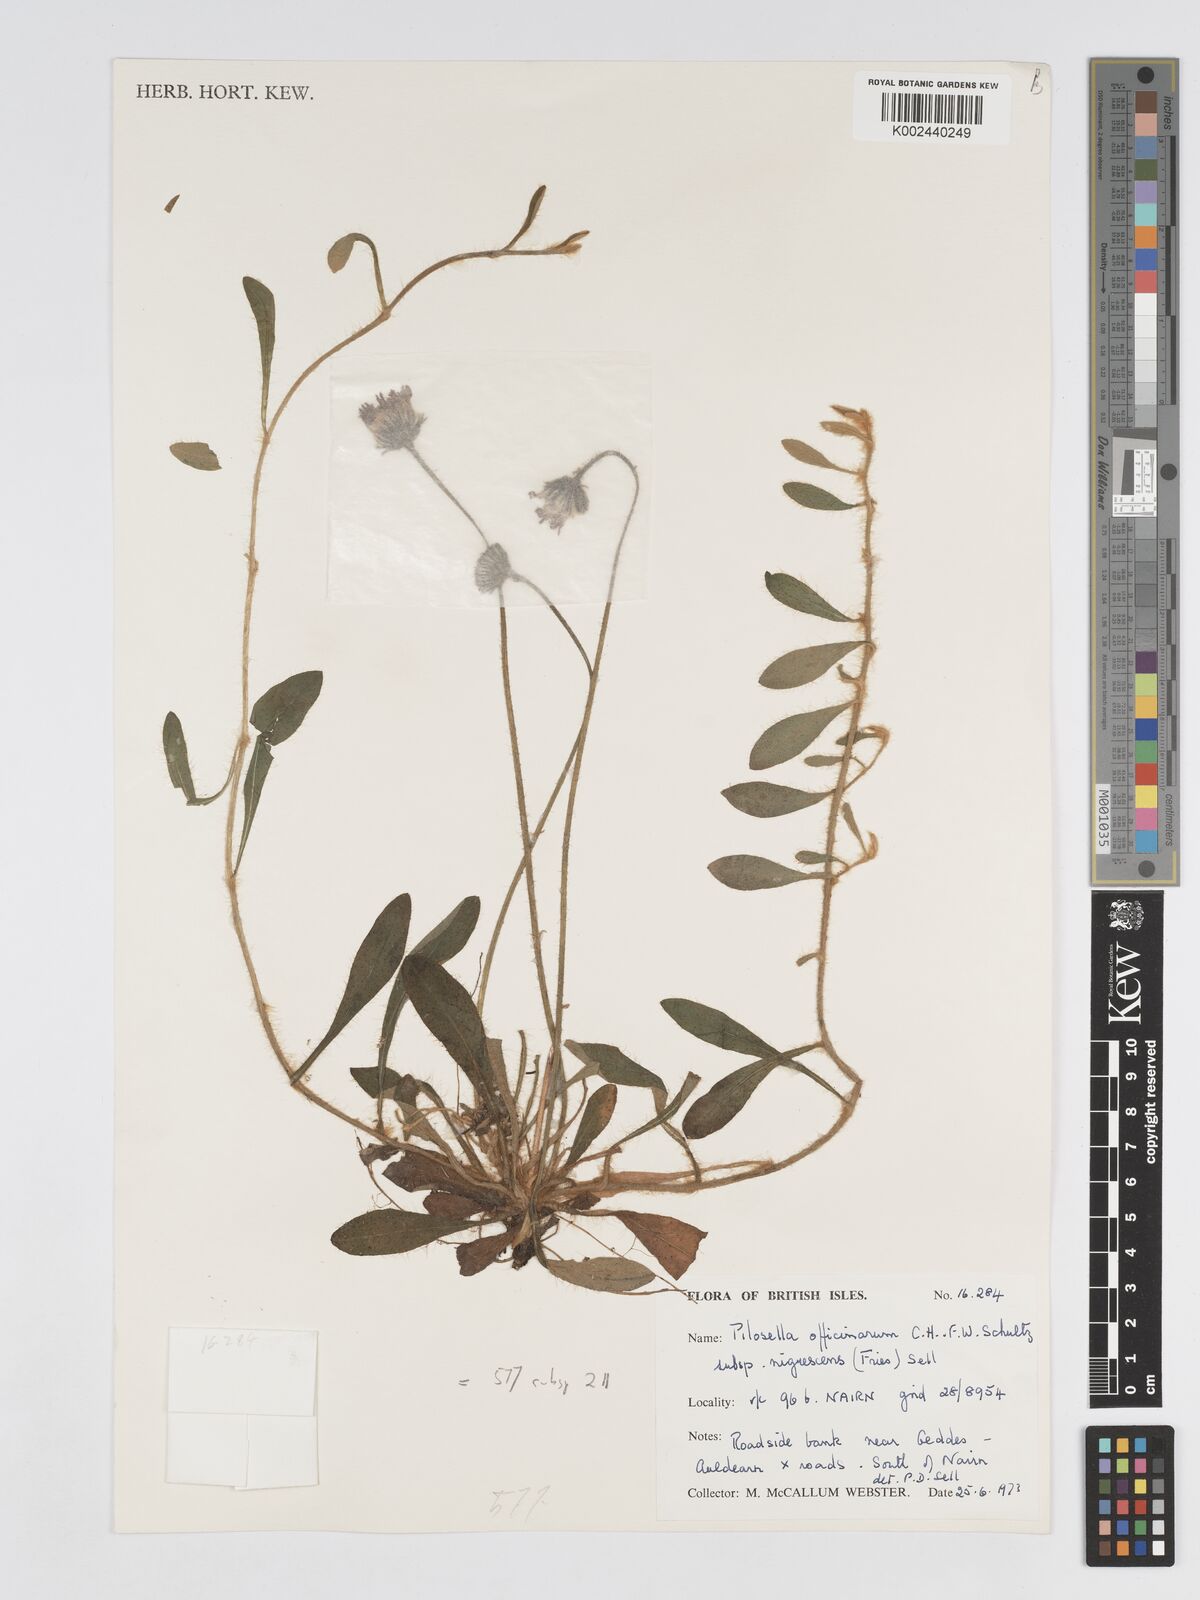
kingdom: Plantae
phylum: Tracheophyta
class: Magnoliopsida
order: Asterales
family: Asteraceae
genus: Pilosella
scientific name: Pilosella officinarum
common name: Mouse-ear hawkweed
